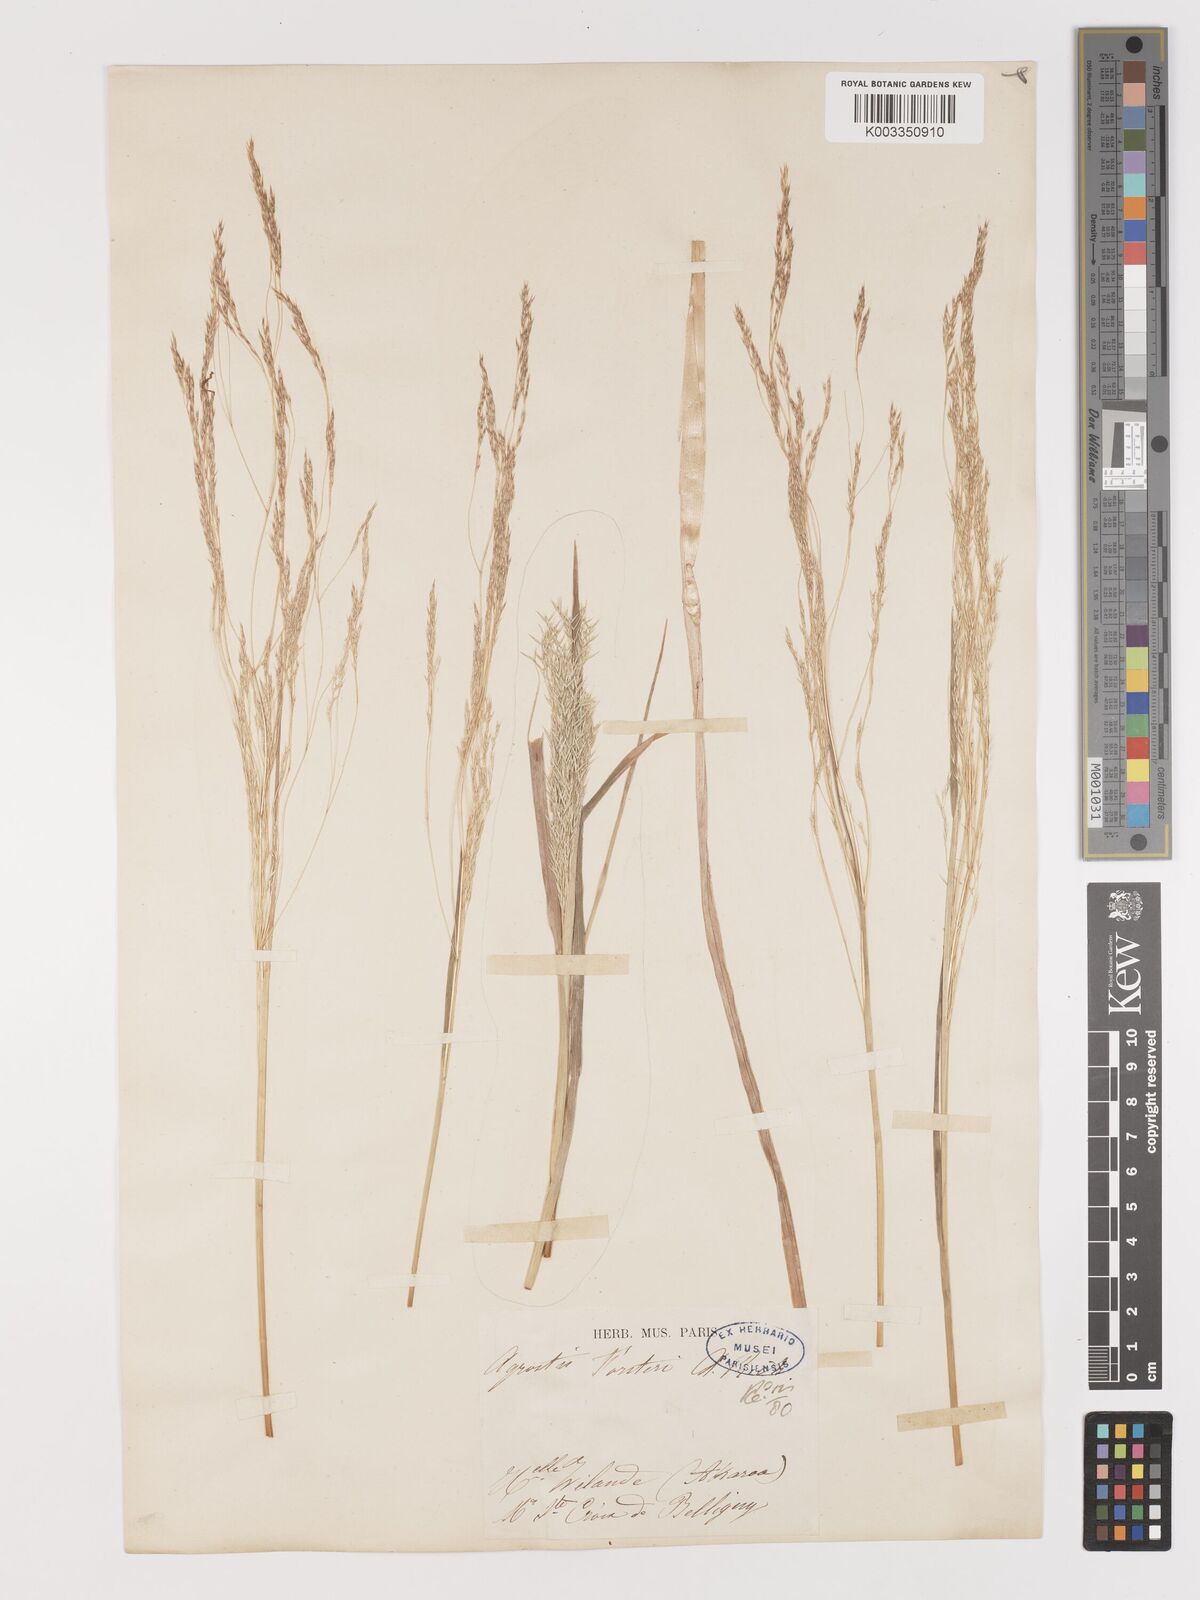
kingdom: Plantae
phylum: Tracheophyta
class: Liliopsida
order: Poales
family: Poaceae
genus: Lachnagrostis
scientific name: Lachnagrostis filiformis
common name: Bentgrass
